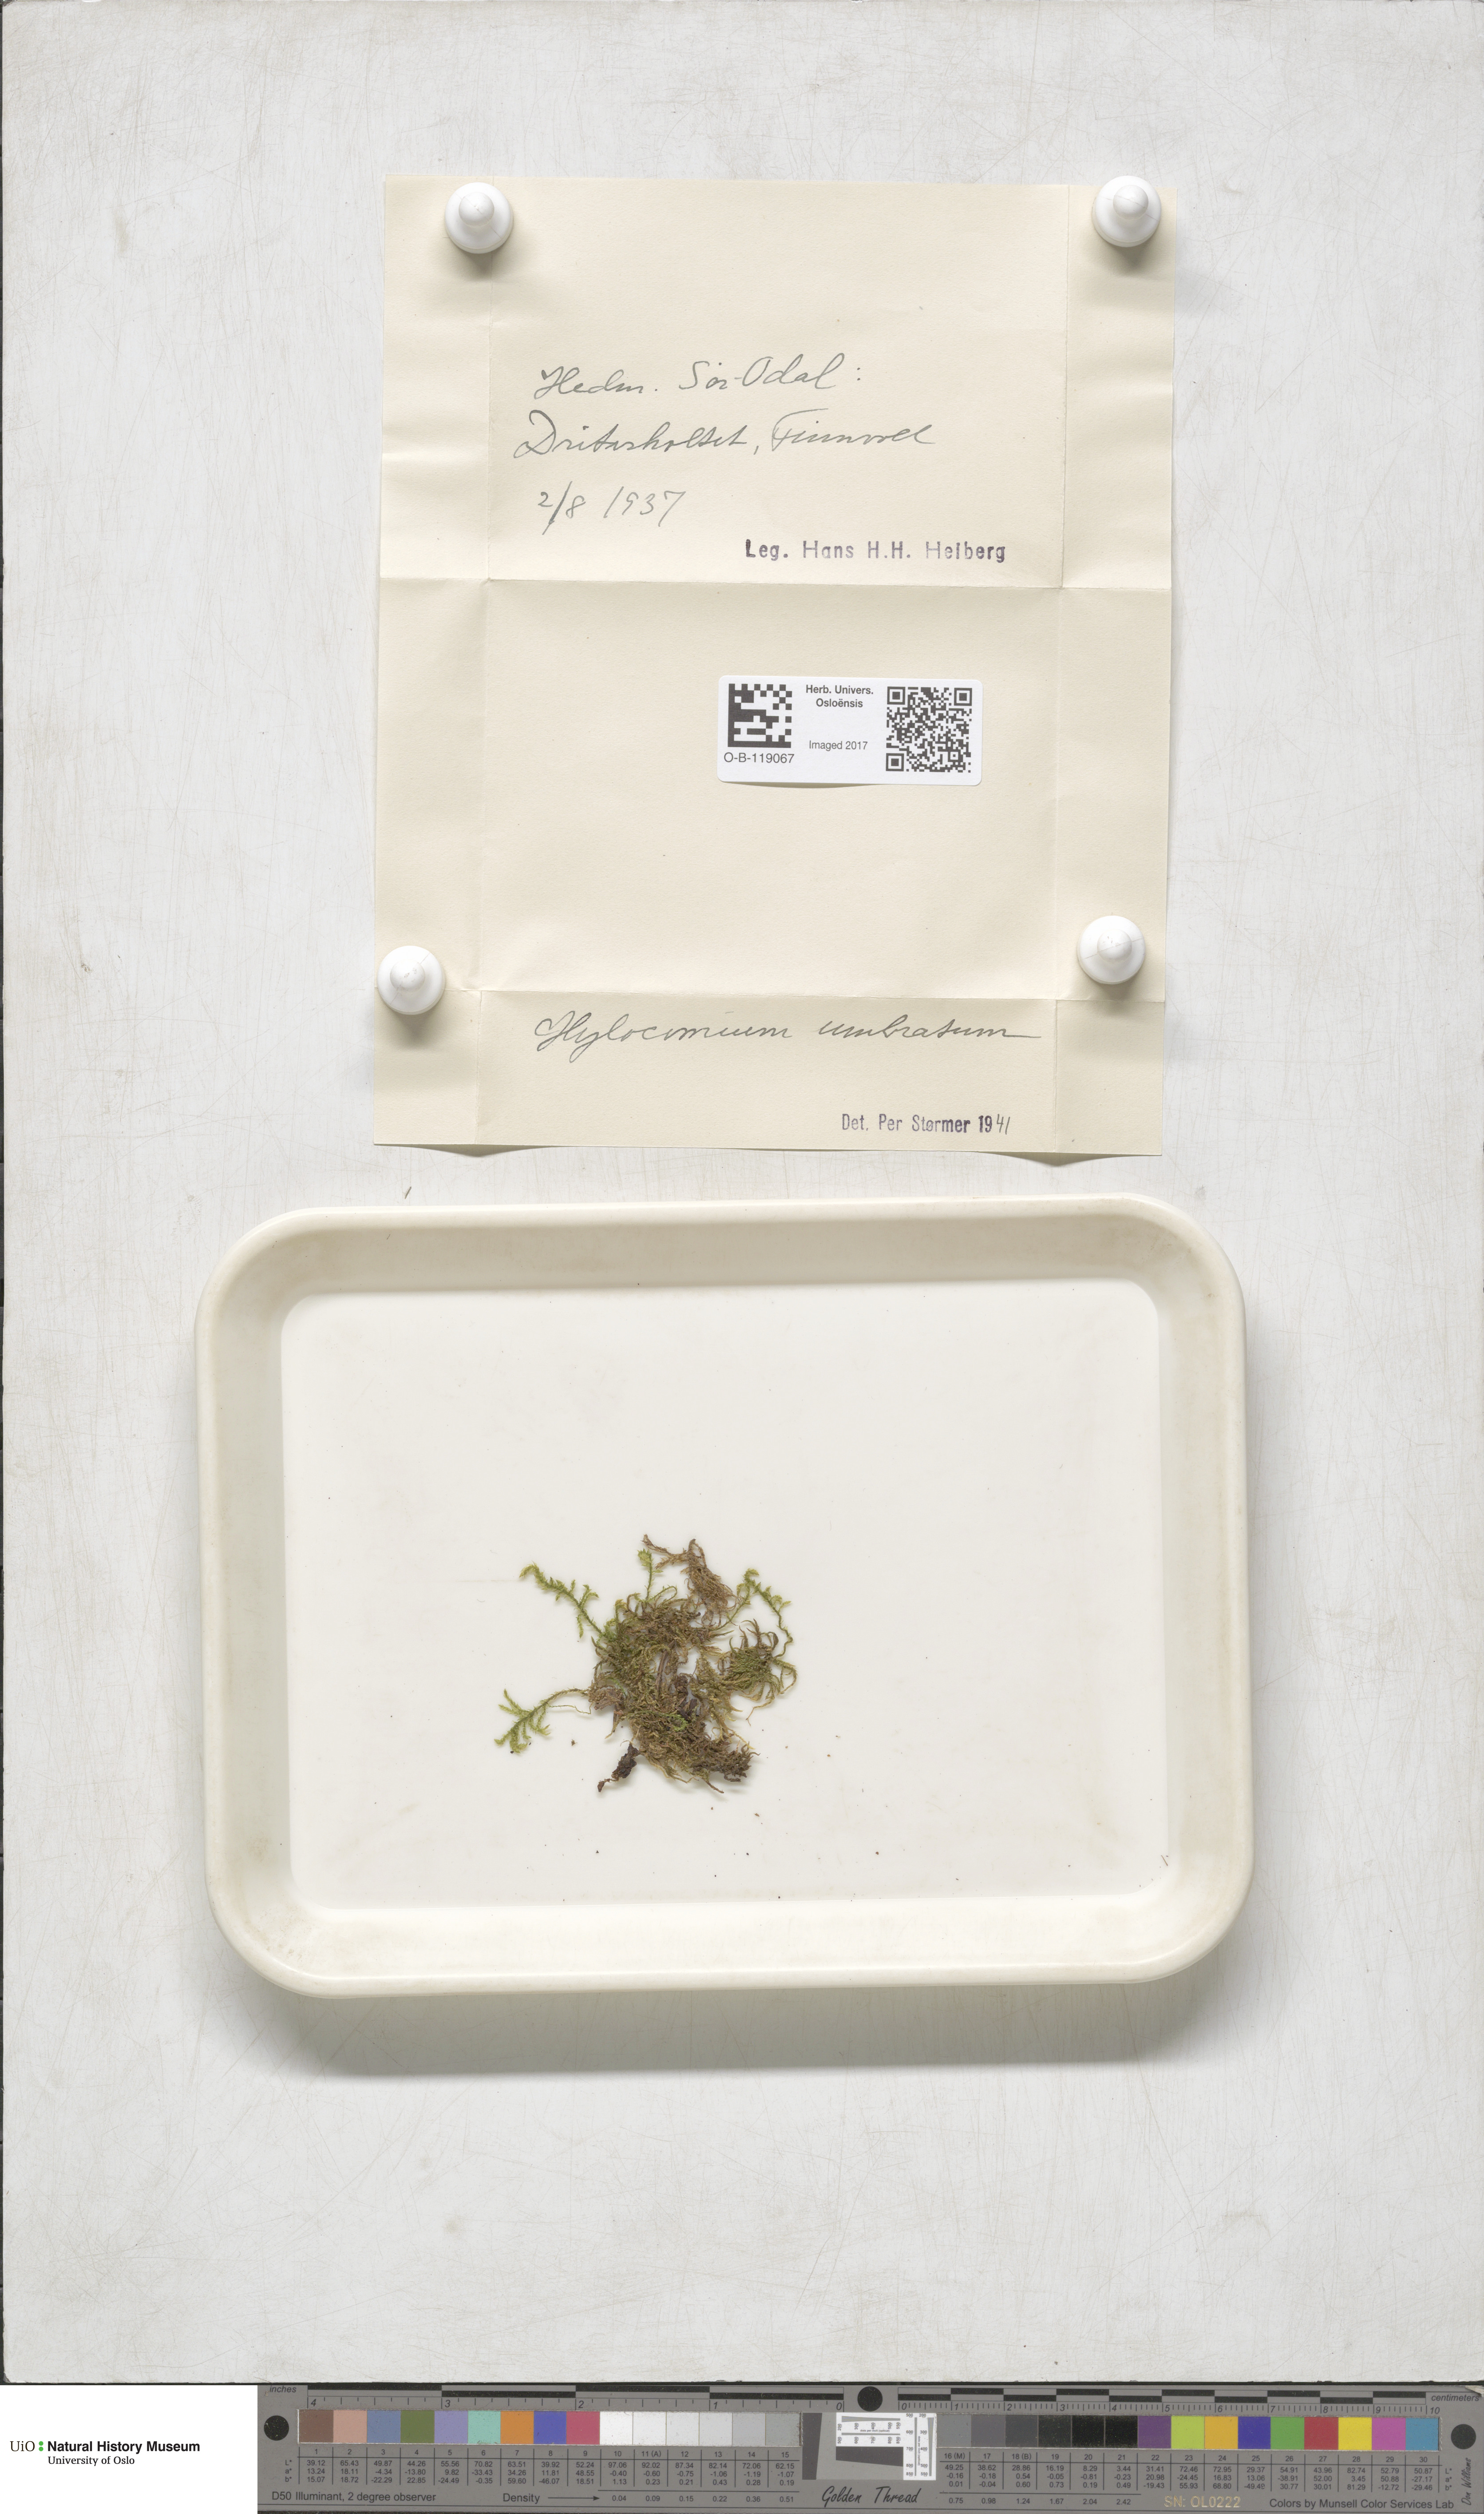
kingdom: Plantae
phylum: Bryophyta
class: Bryopsida
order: Hypnales
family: Hylocomiaceae
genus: Hylocomiastrum
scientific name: Hylocomiastrum umbratum
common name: Shaded woods moss
